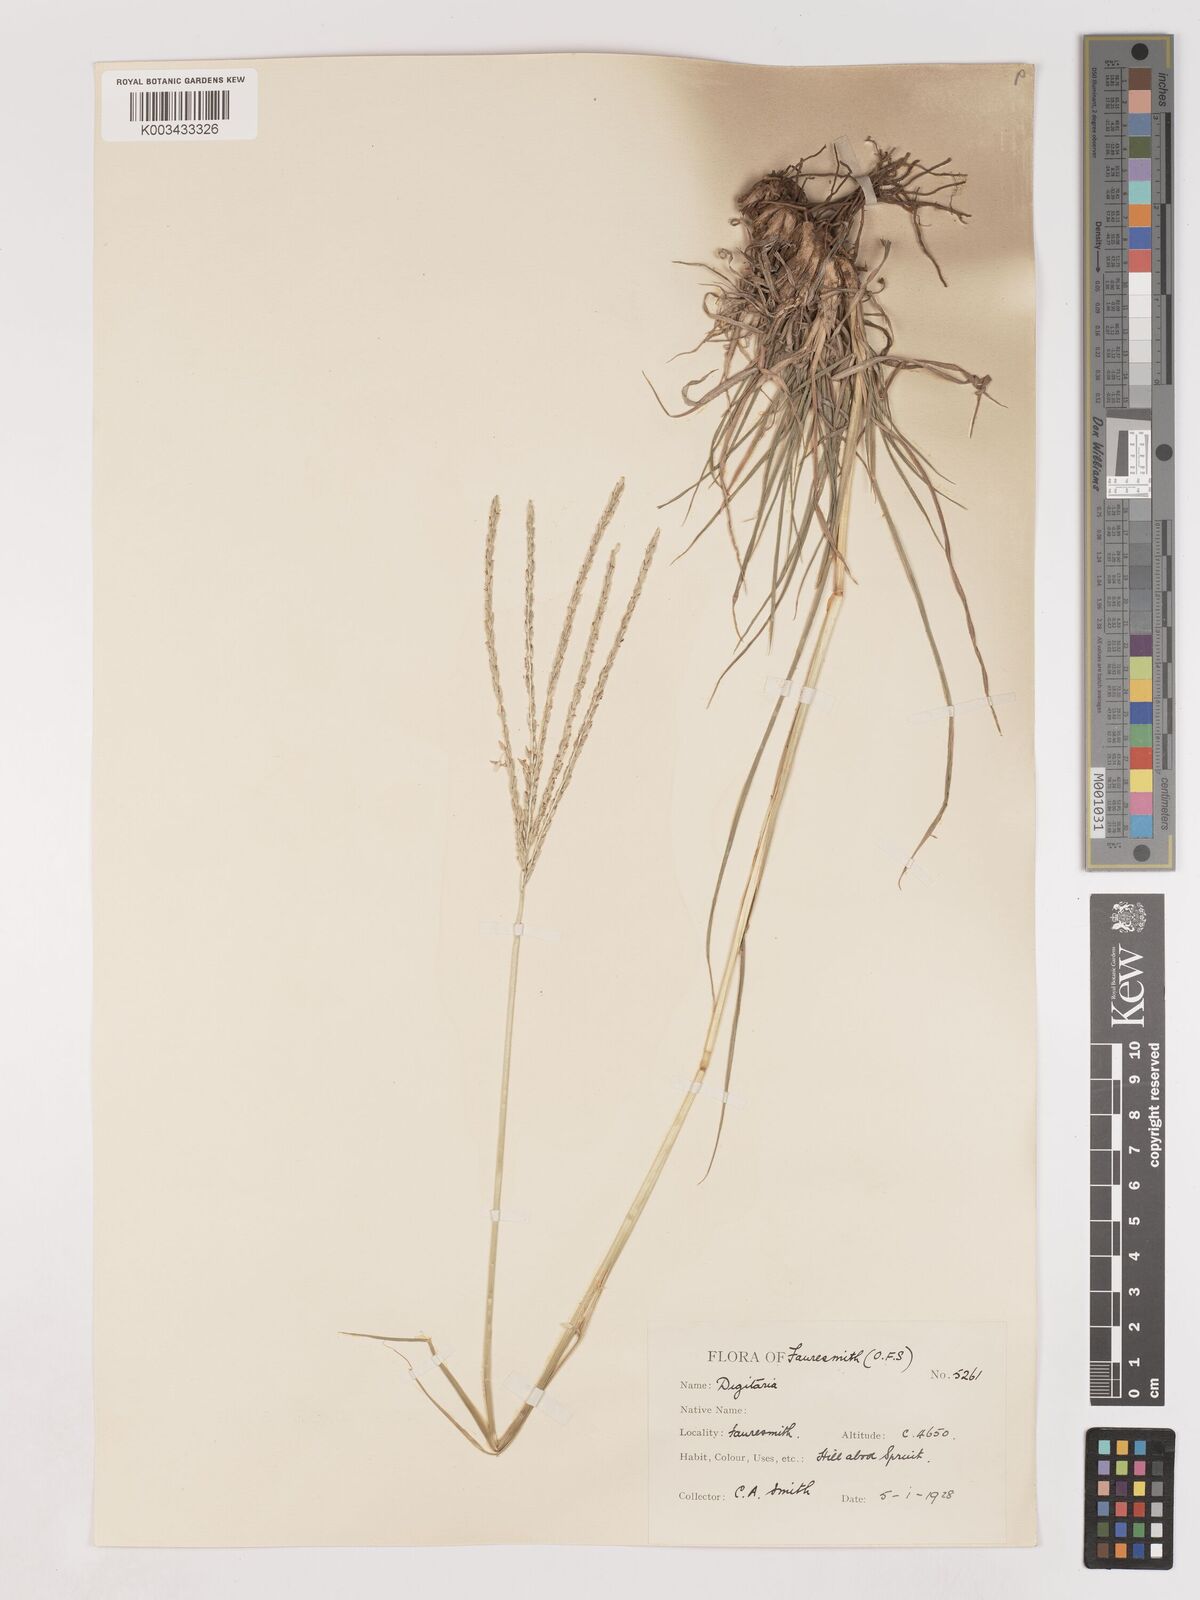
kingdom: Plantae
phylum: Tracheophyta
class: Liliopsida
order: Poales
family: Poaceae
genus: Digitaria
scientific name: Digitaria eriantha
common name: Digitgrass
